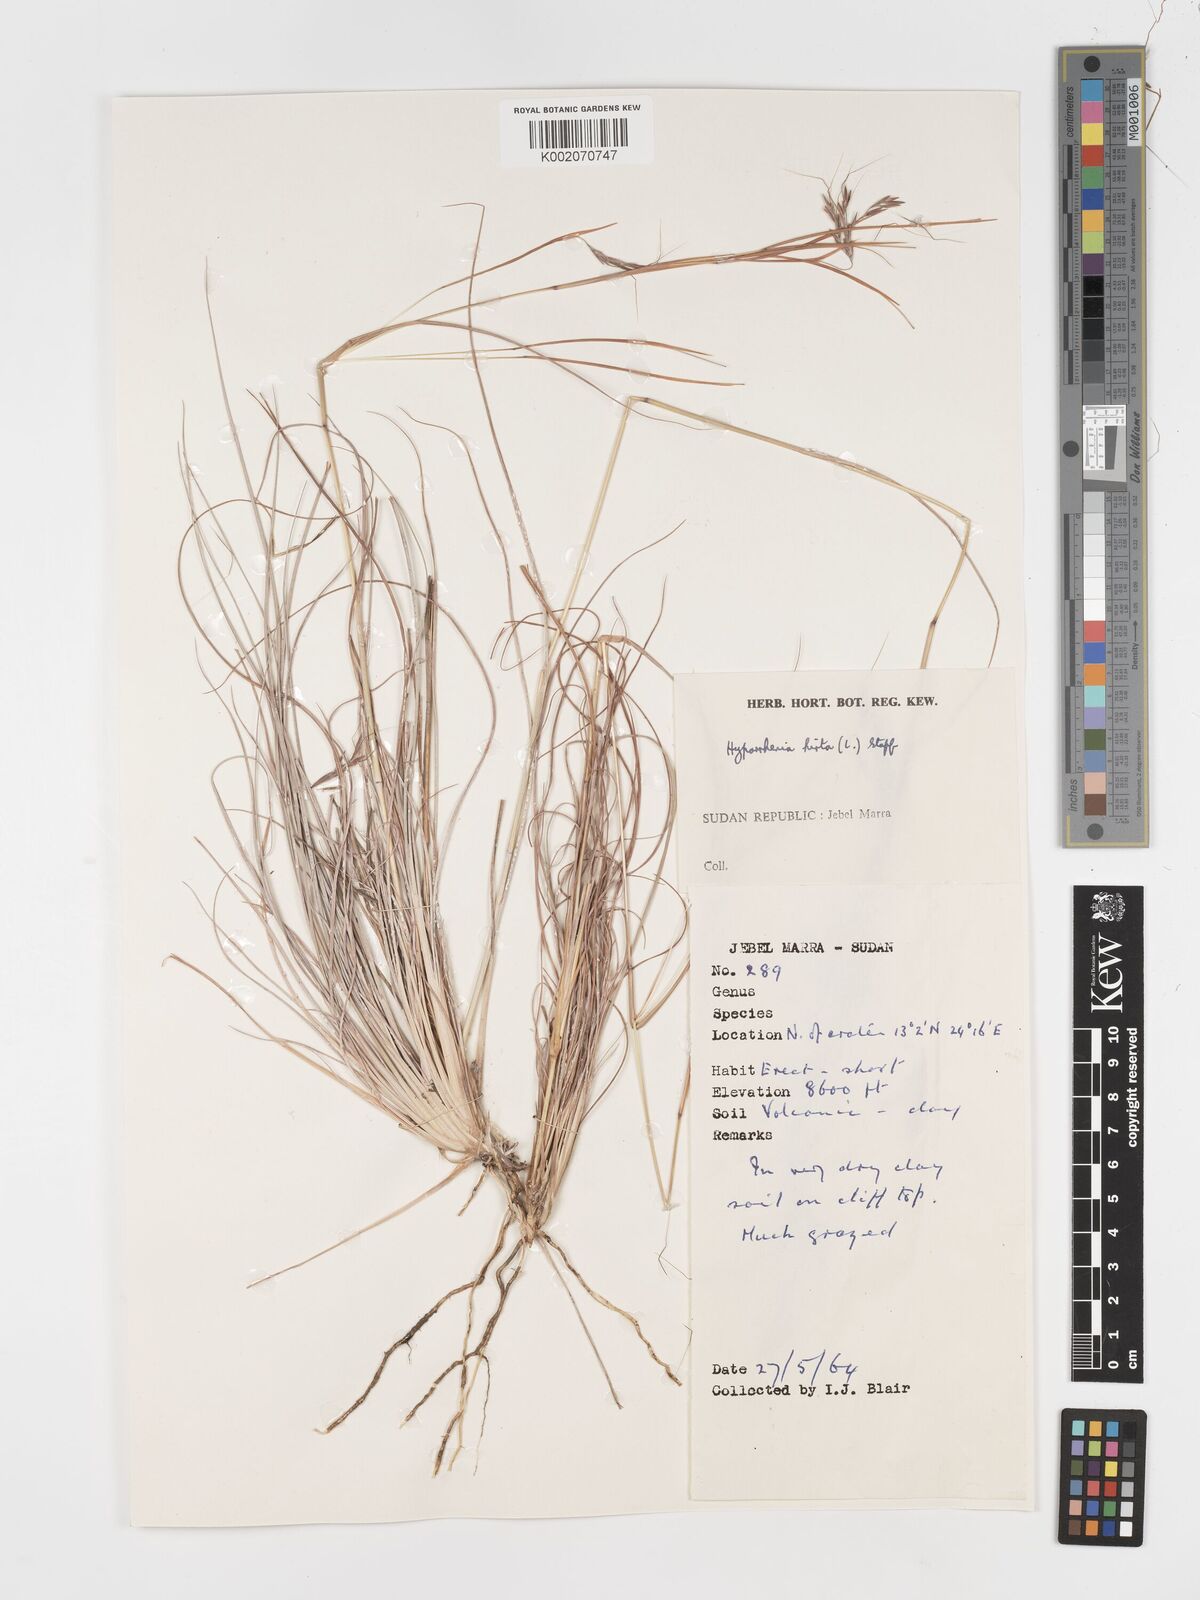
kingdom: Plantae
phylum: Tracheophyta
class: Liliopsida
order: Poales
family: Poaceae
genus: Hyparrhenia
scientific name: Hyparrhenia hirta
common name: Thatching grass
